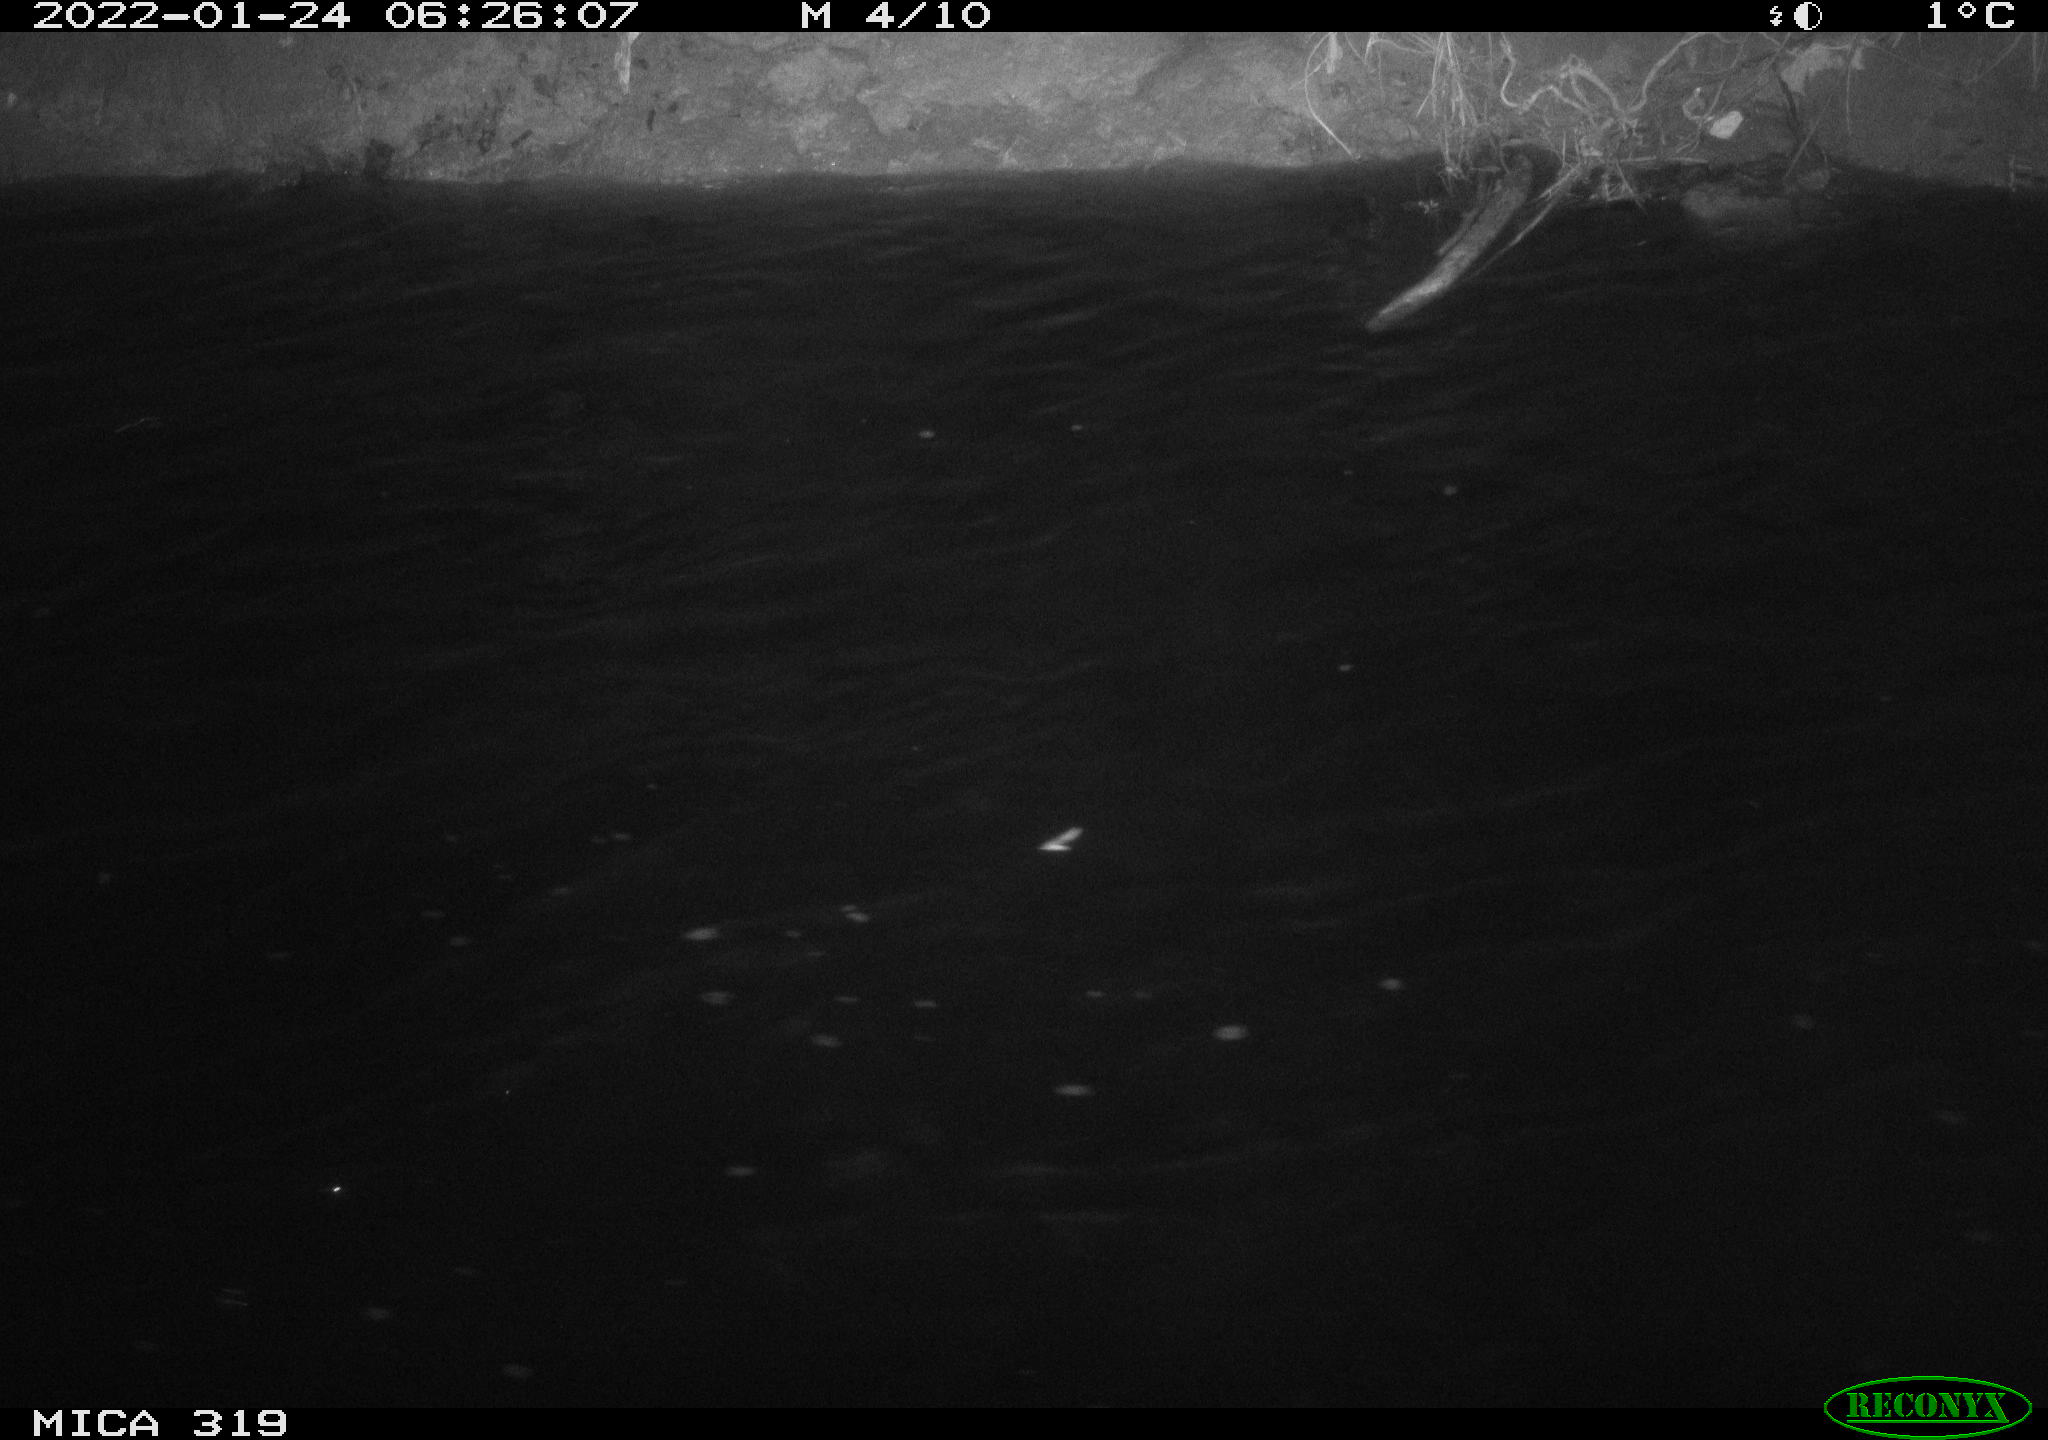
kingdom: Animalia
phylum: Chordata
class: Aves
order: Anseriformes
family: Anatidae
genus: Anas
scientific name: Anas platyrhynchos
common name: Mallard
